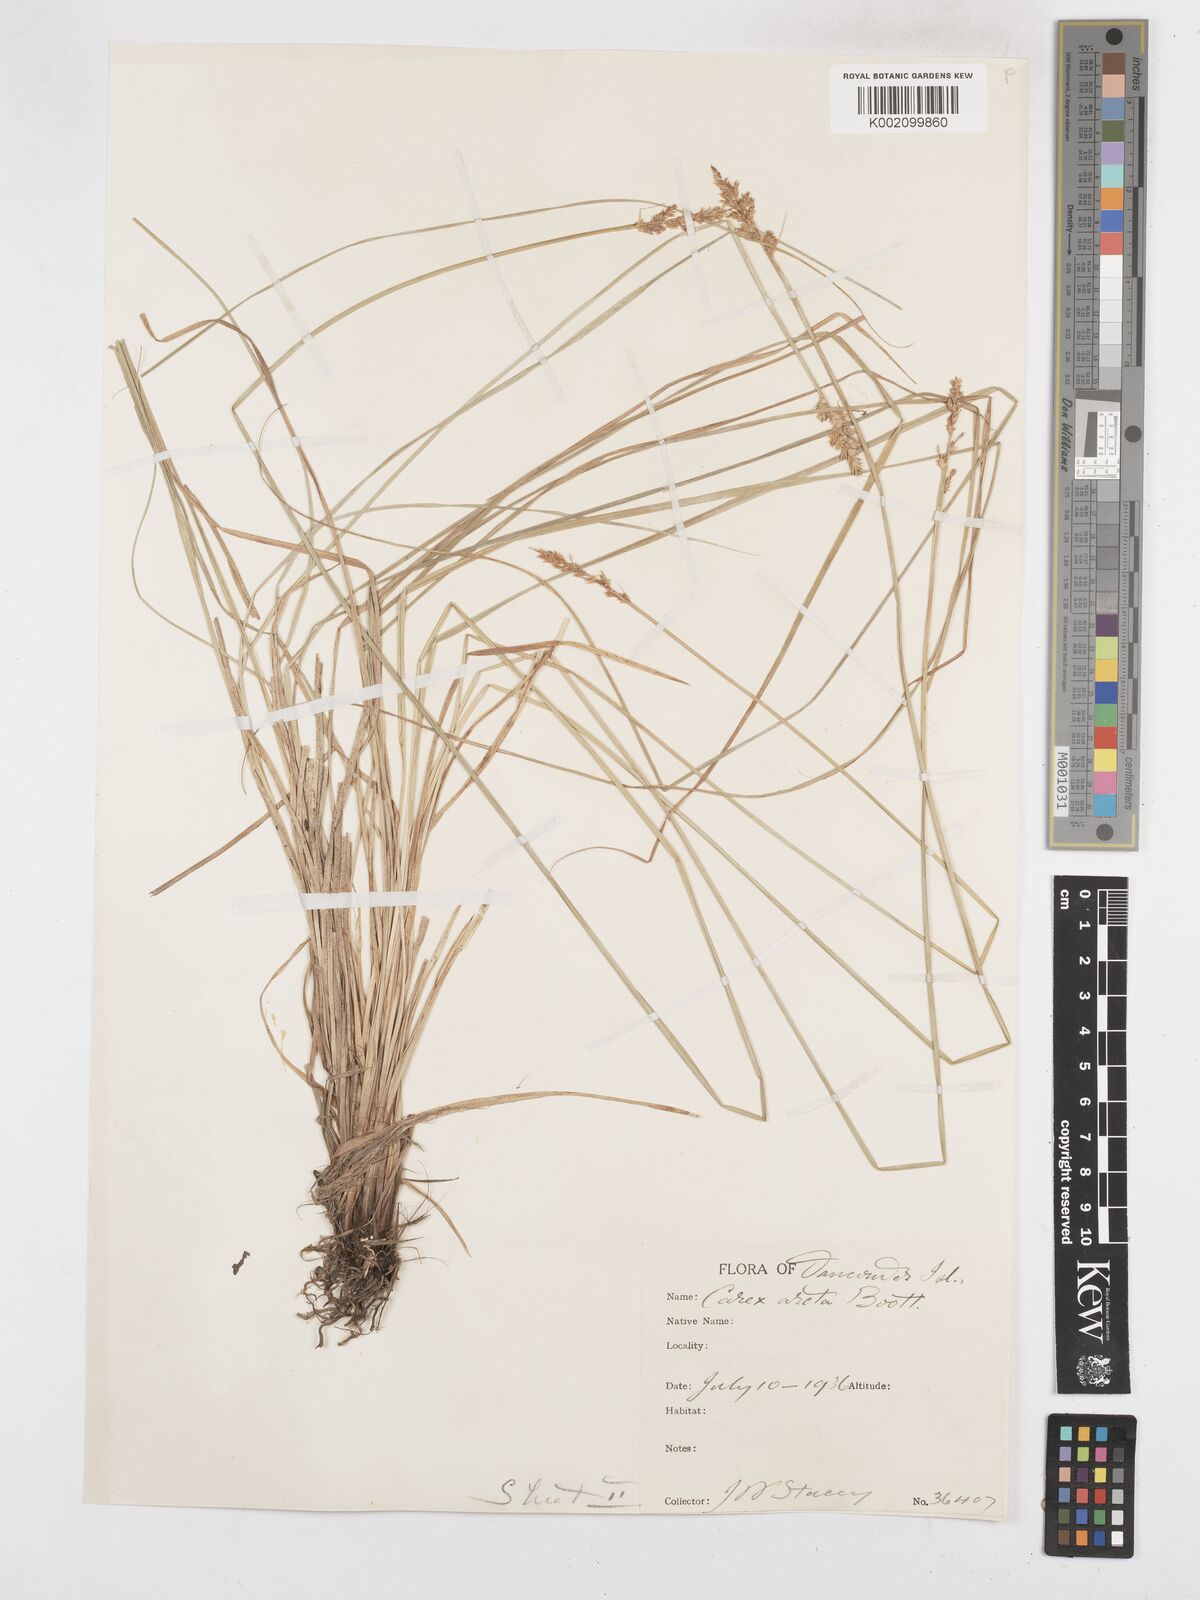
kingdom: Plantae
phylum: Tracheophyta
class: Liliopsida
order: Poales
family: Cyperaceae
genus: Carex
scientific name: Carex arcta
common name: Bear sedge
